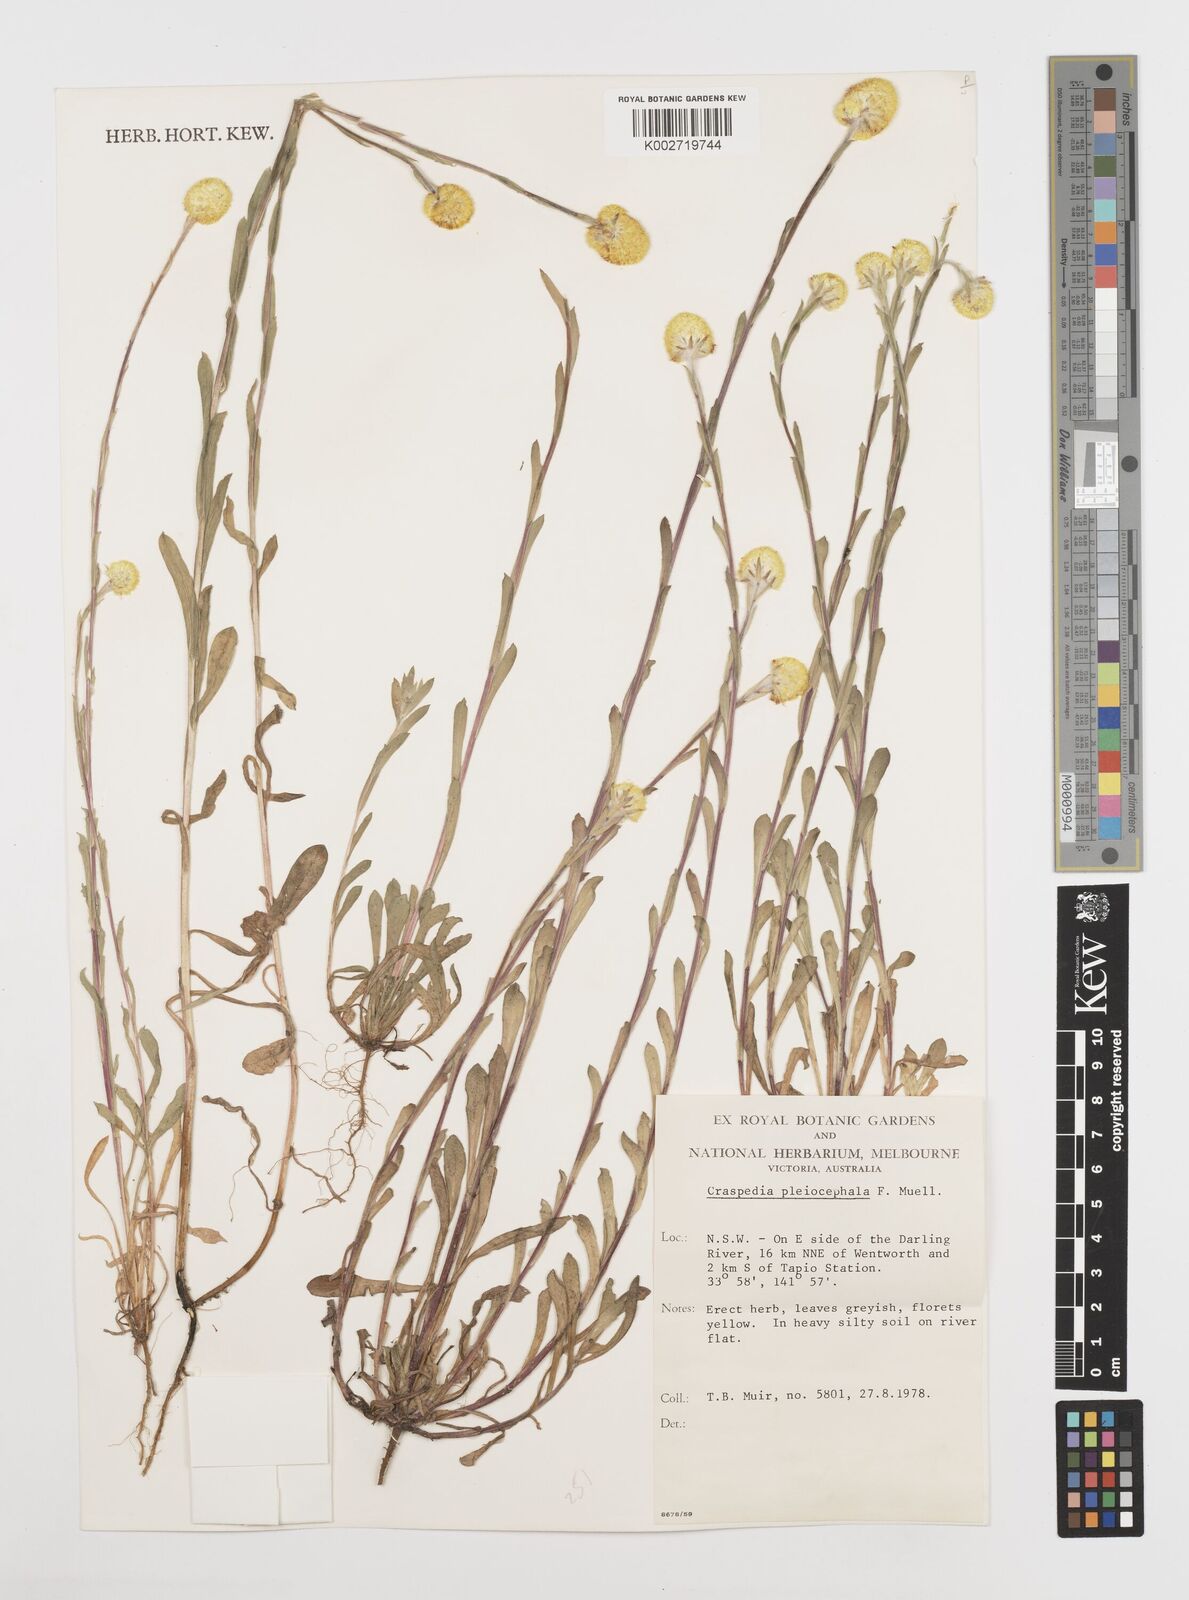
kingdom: Plantae
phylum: Tracheophyta
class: Magnoliopsida
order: Asterales
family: Asteraceae
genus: Pycnosorus
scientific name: Pycnosorus pleiocephalus
